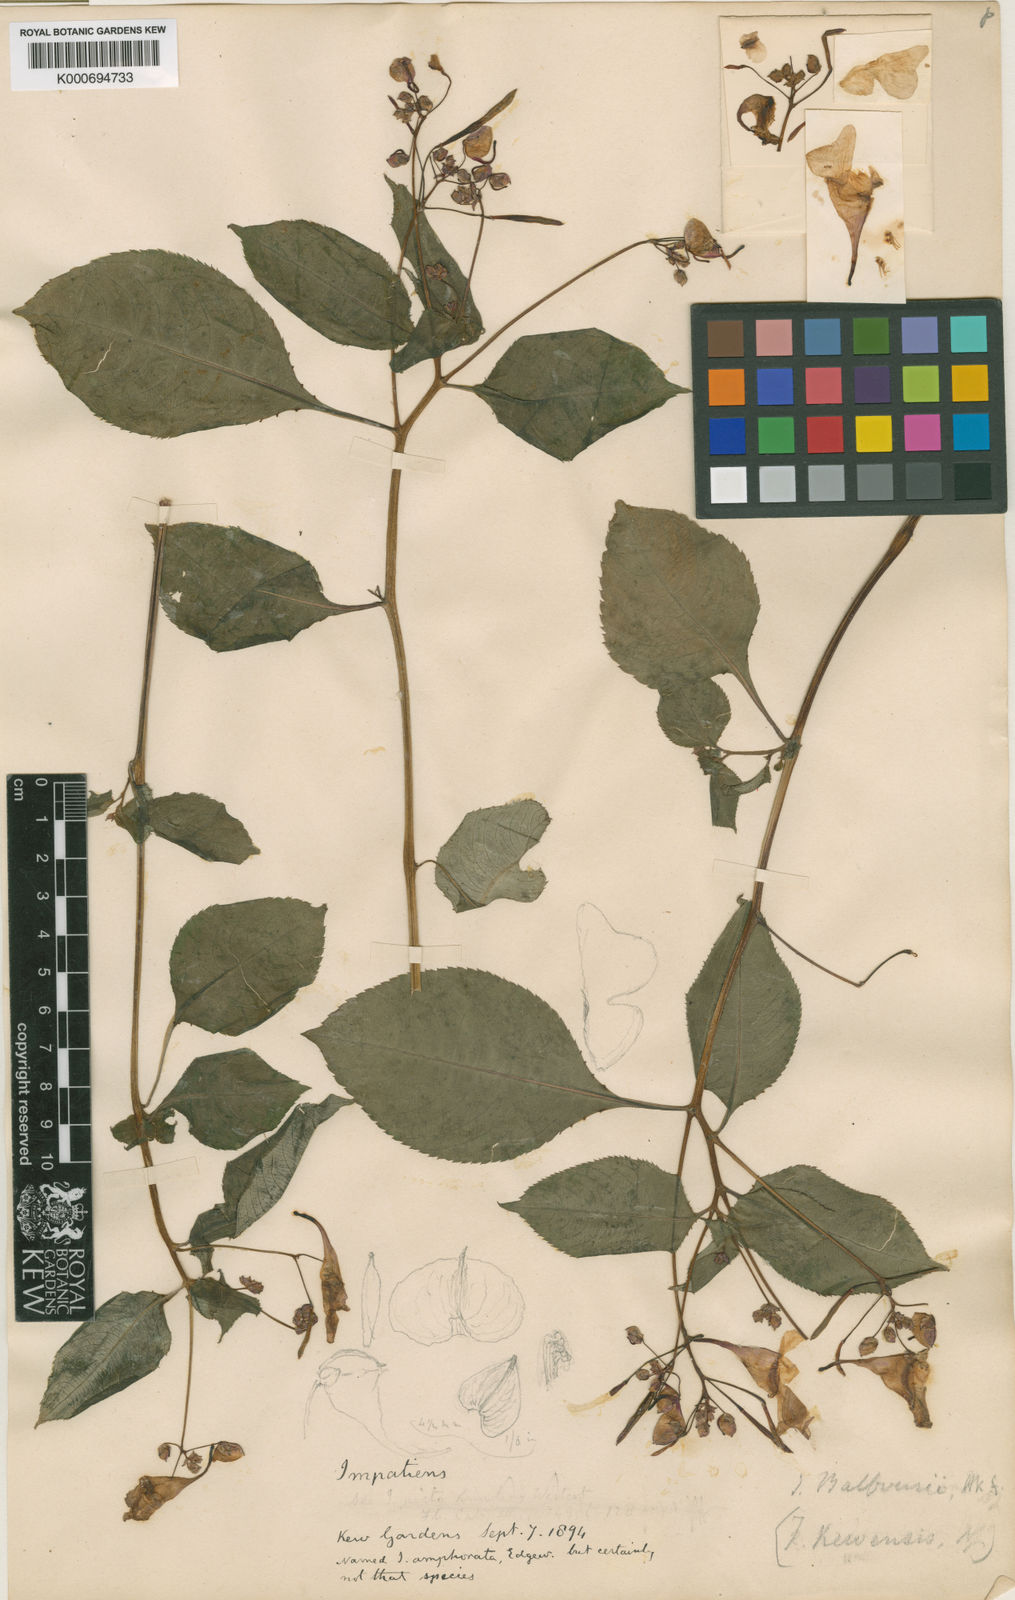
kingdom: Plantae
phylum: Tracheophyta
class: Magnoliopsida
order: Ericales
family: Balsaminaceae
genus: Impatiens
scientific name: Impatiens balfourii
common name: Balfour's touch-me-not
